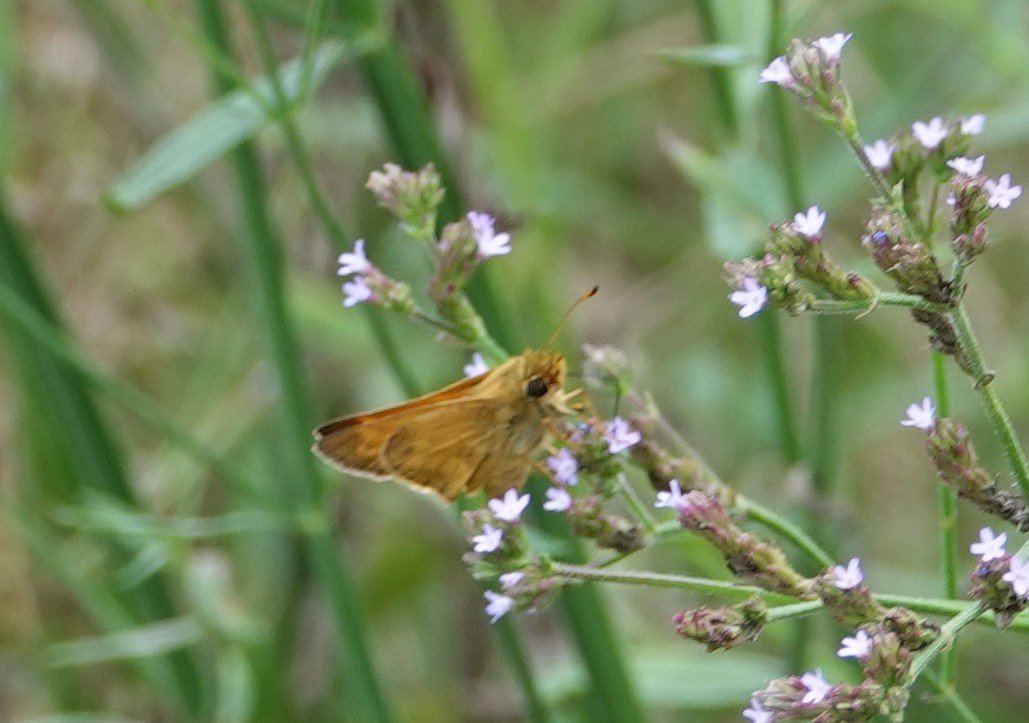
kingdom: Animalia
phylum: Arthropoda
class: Insecta
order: Lepidoptera
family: Hesperiidae
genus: Atalopedes
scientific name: Atalopedes campestris
